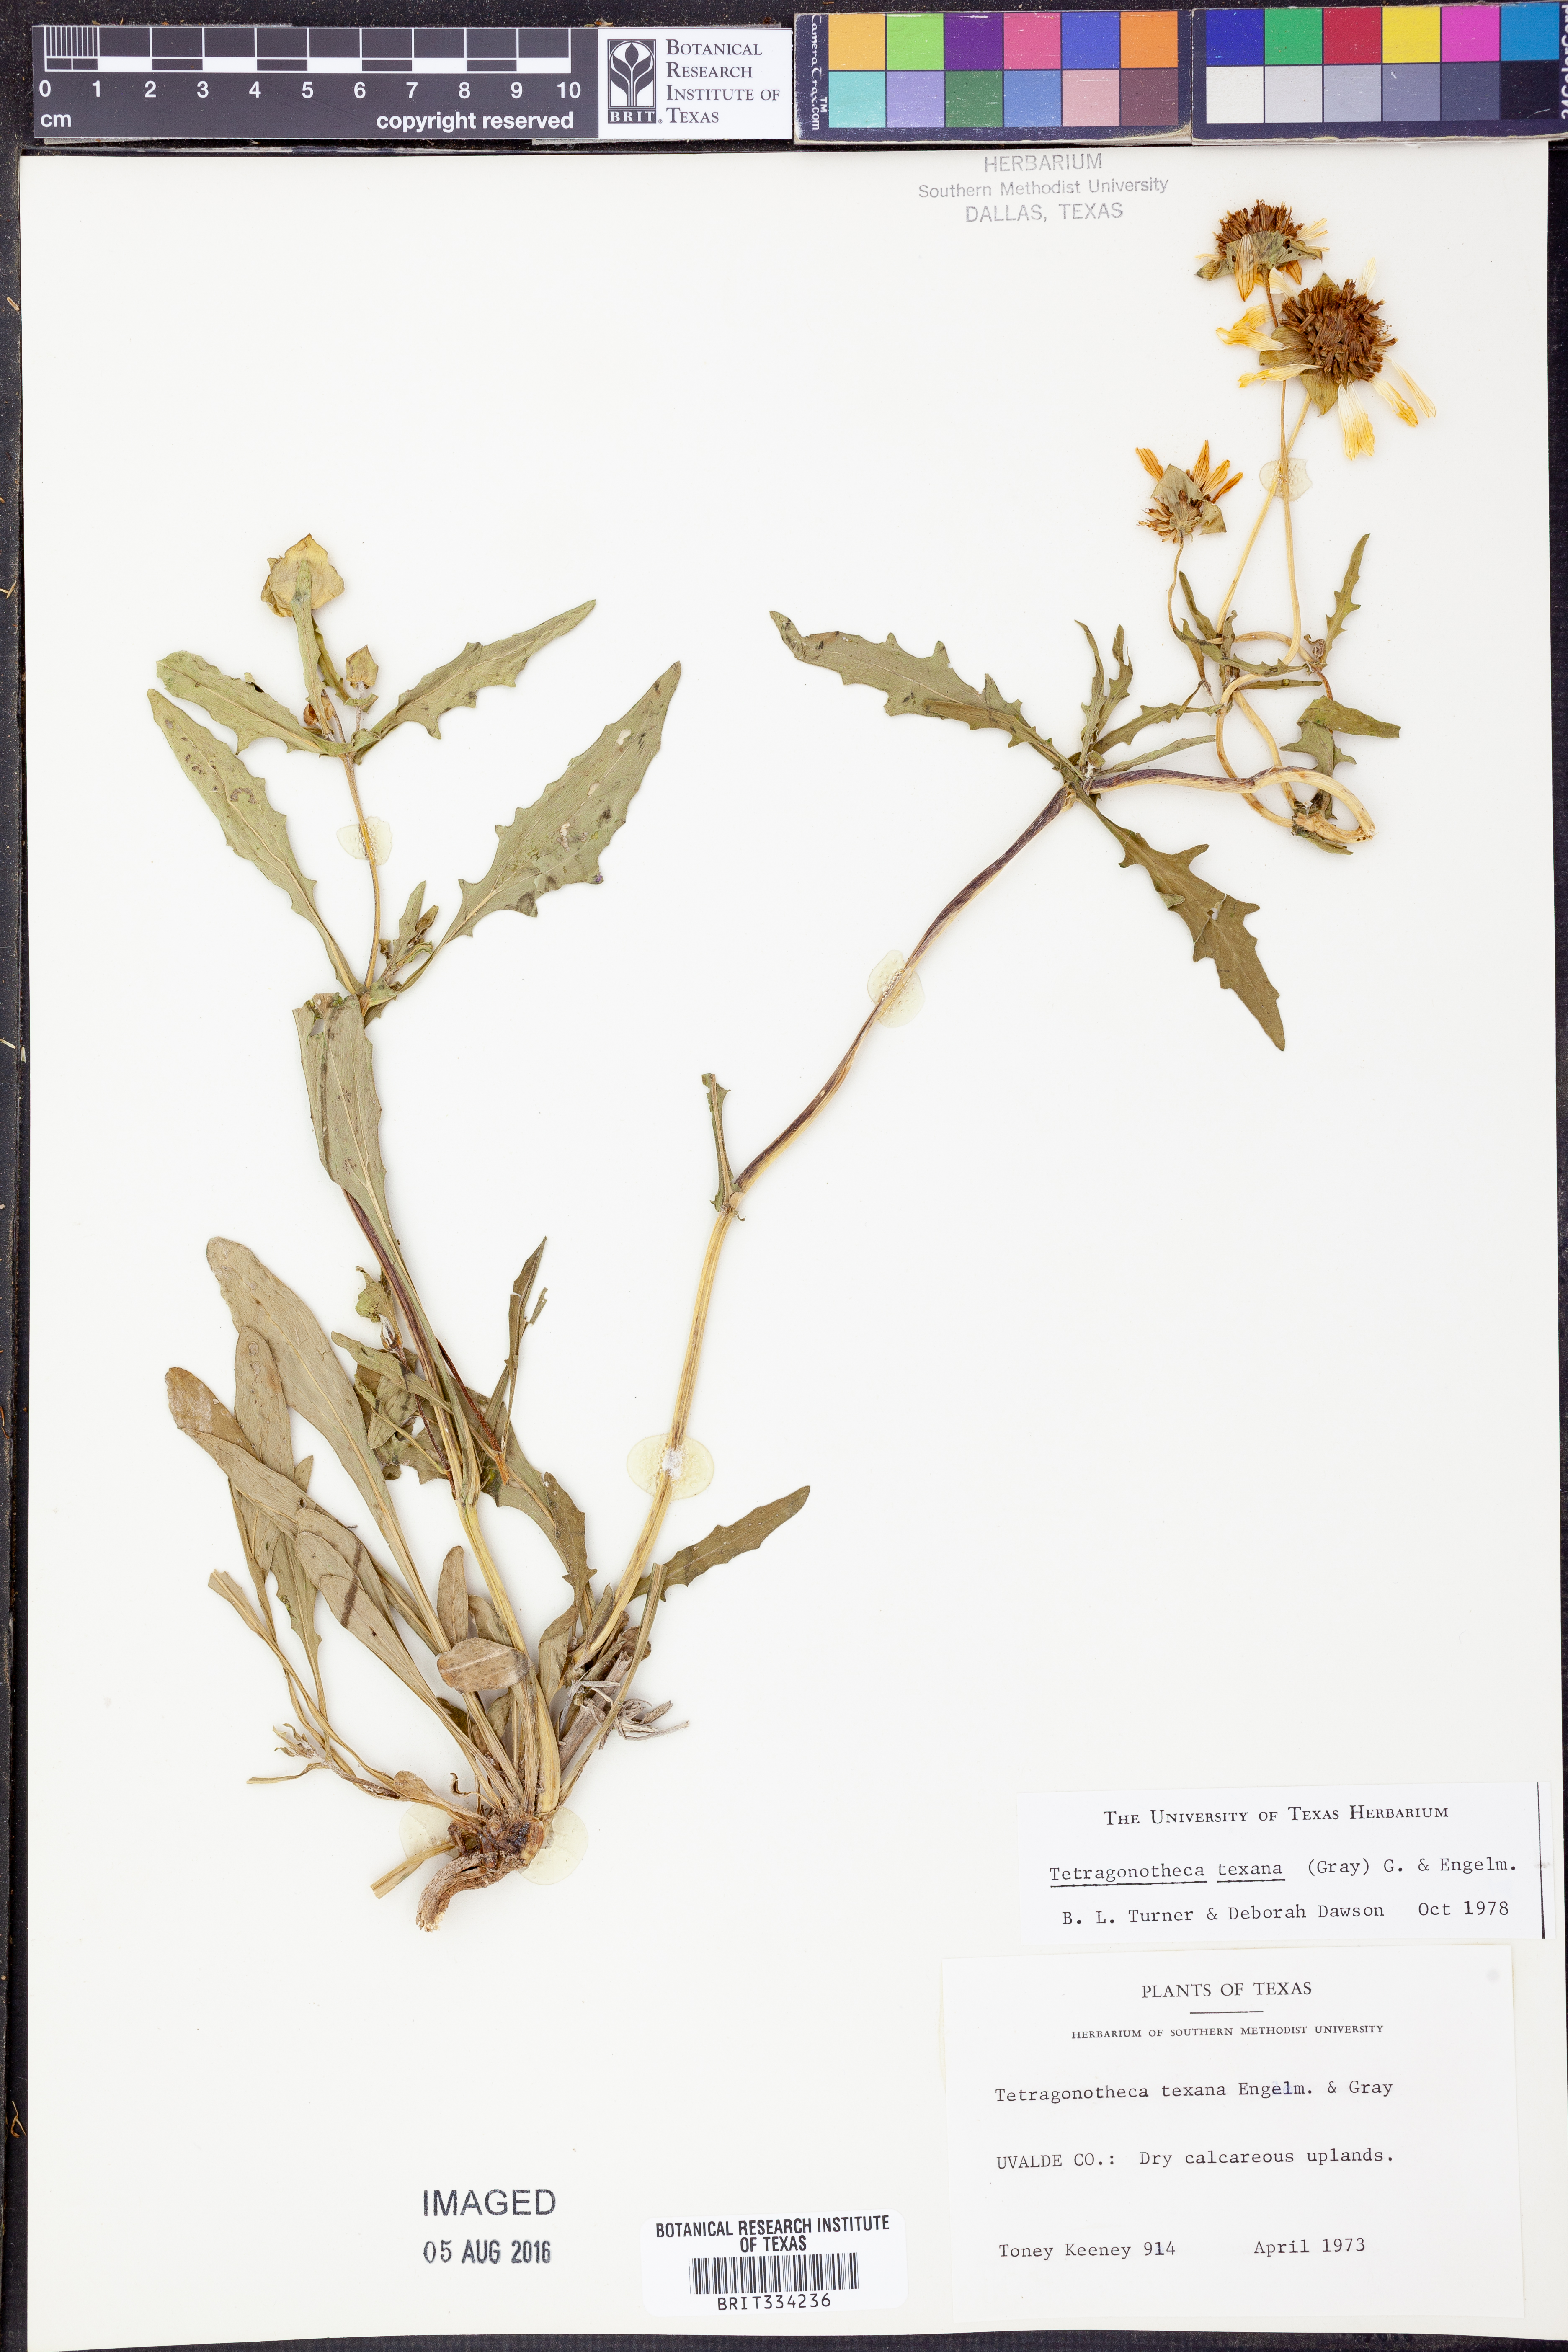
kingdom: Plantae
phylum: Tracheophyta
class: Magnoliopsida
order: Asterales
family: Asteraceae
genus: Tetragonotheca
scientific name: Tetragonotheca texana
